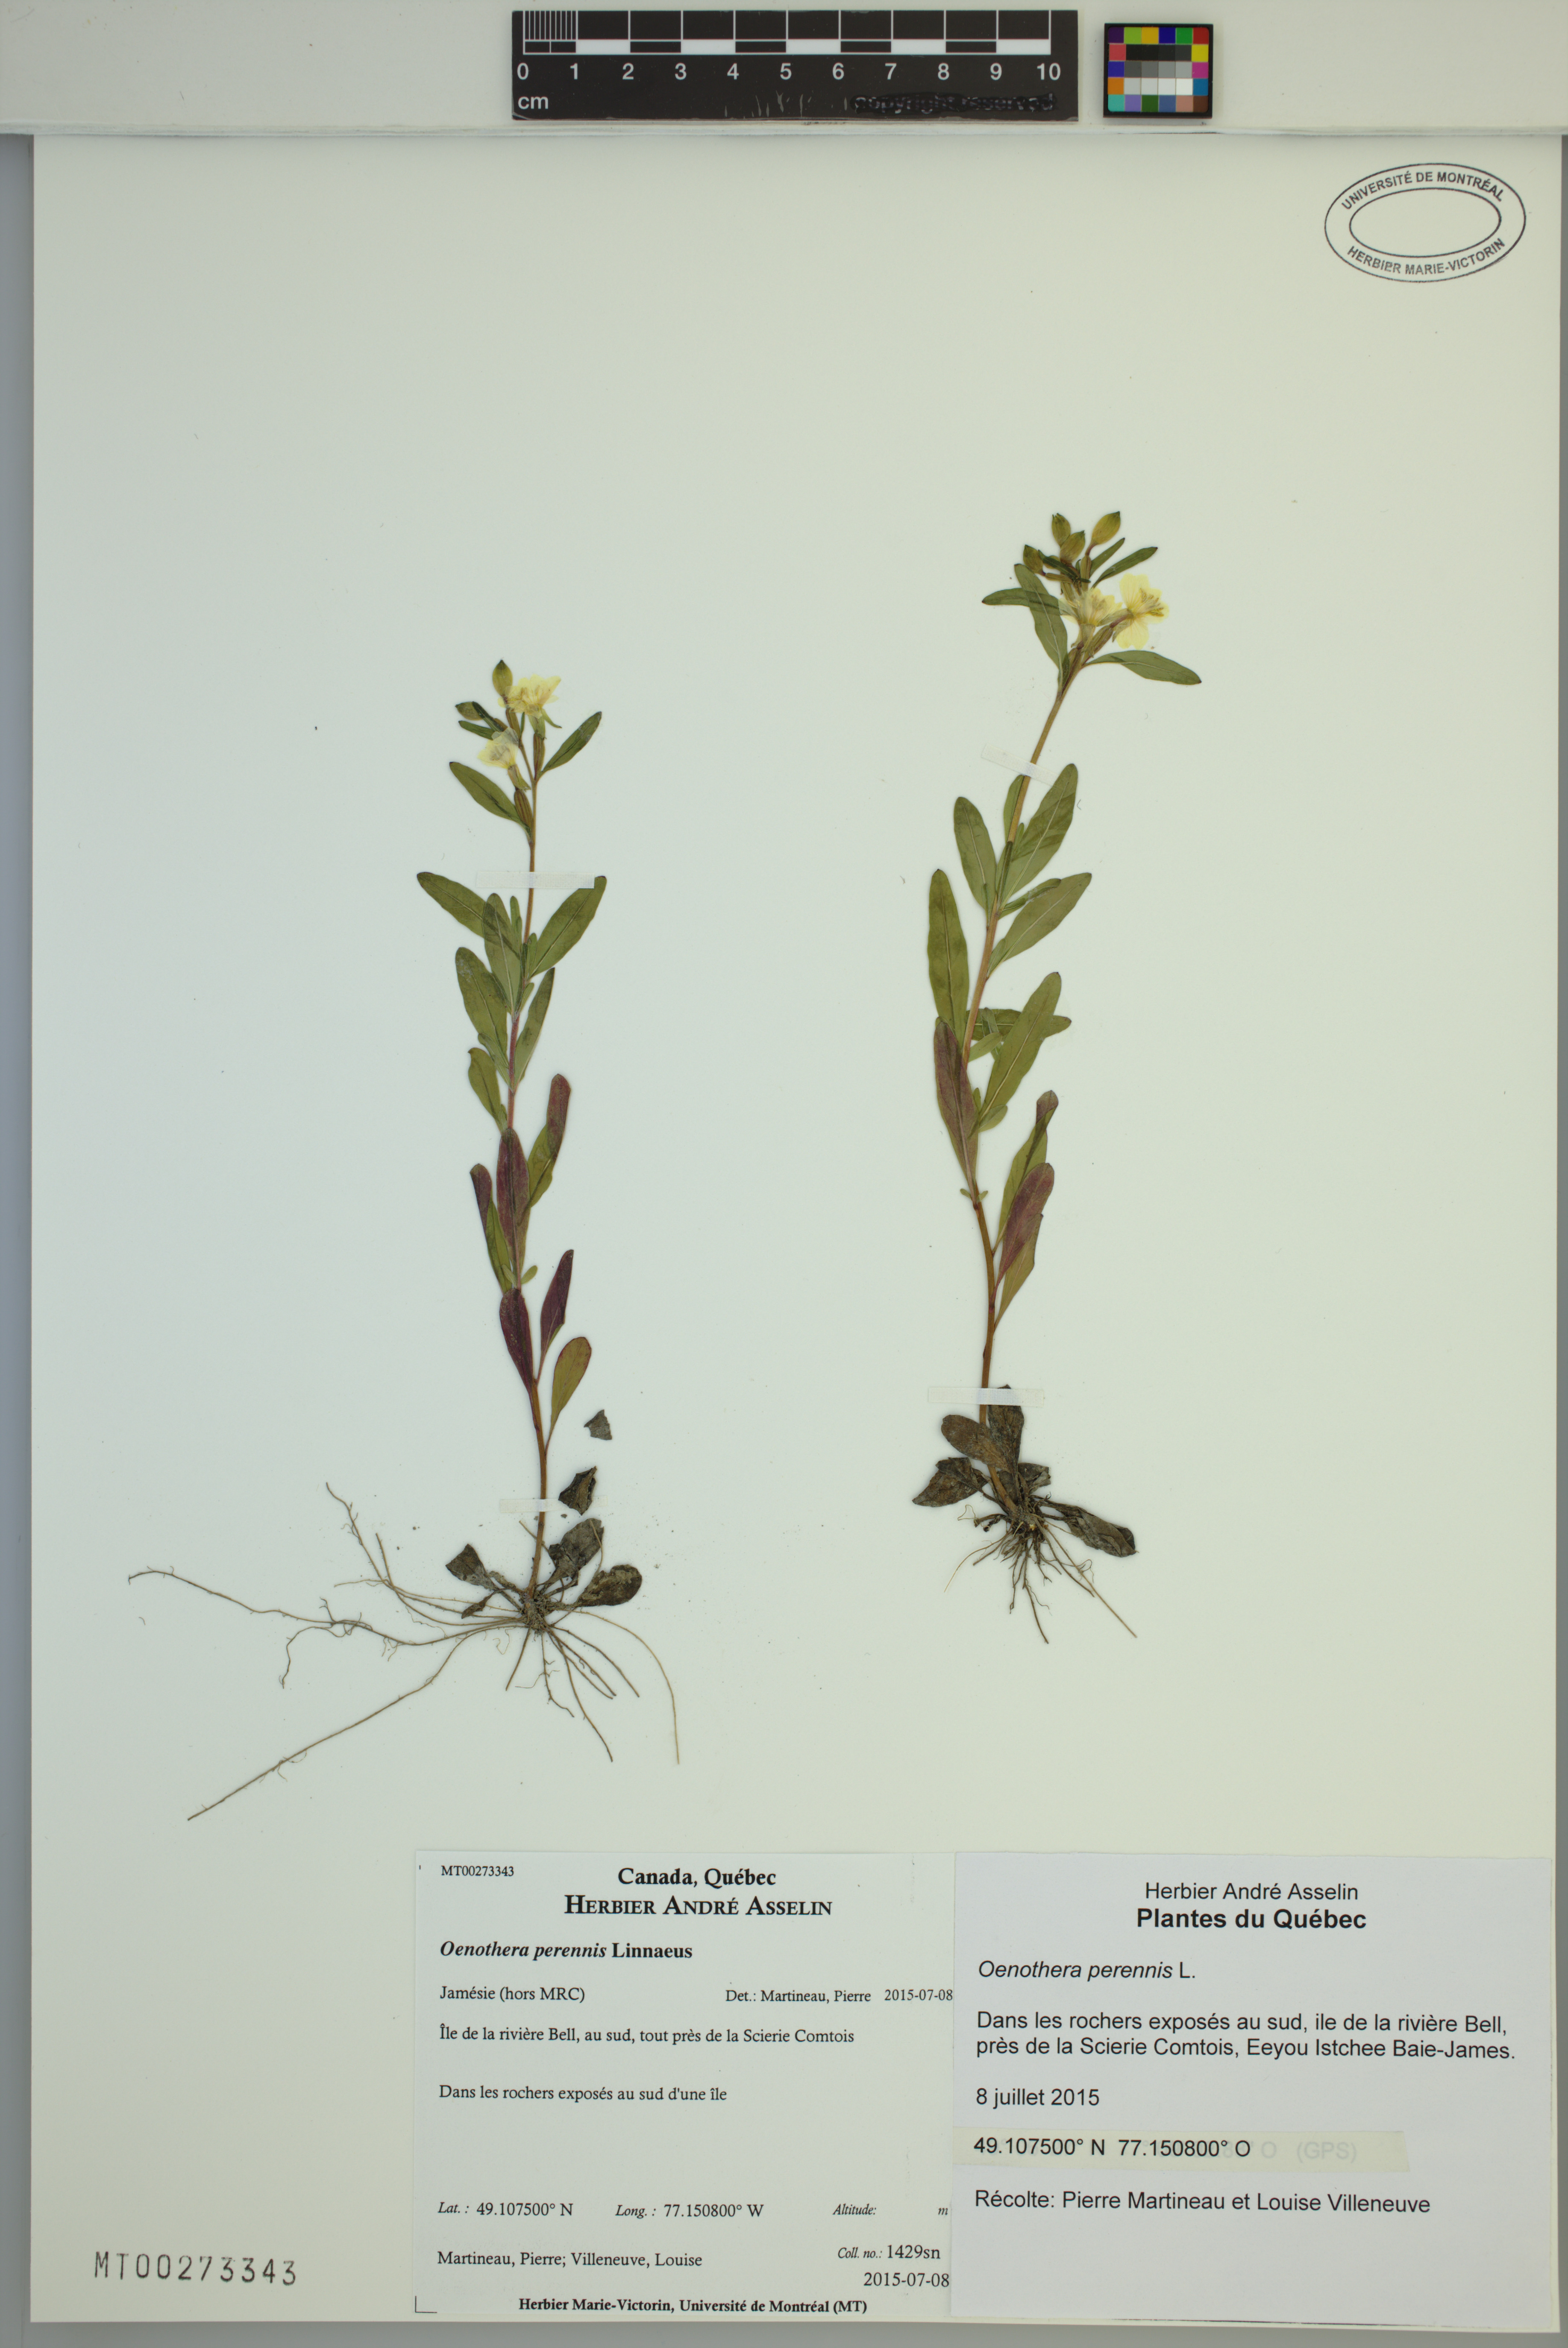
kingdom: Plantae
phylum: Tracheophyta
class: Magnoliopsida
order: Myrtales
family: Onagraceae
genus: Oenothera
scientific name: Oenothera perennis
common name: Small sundrops
